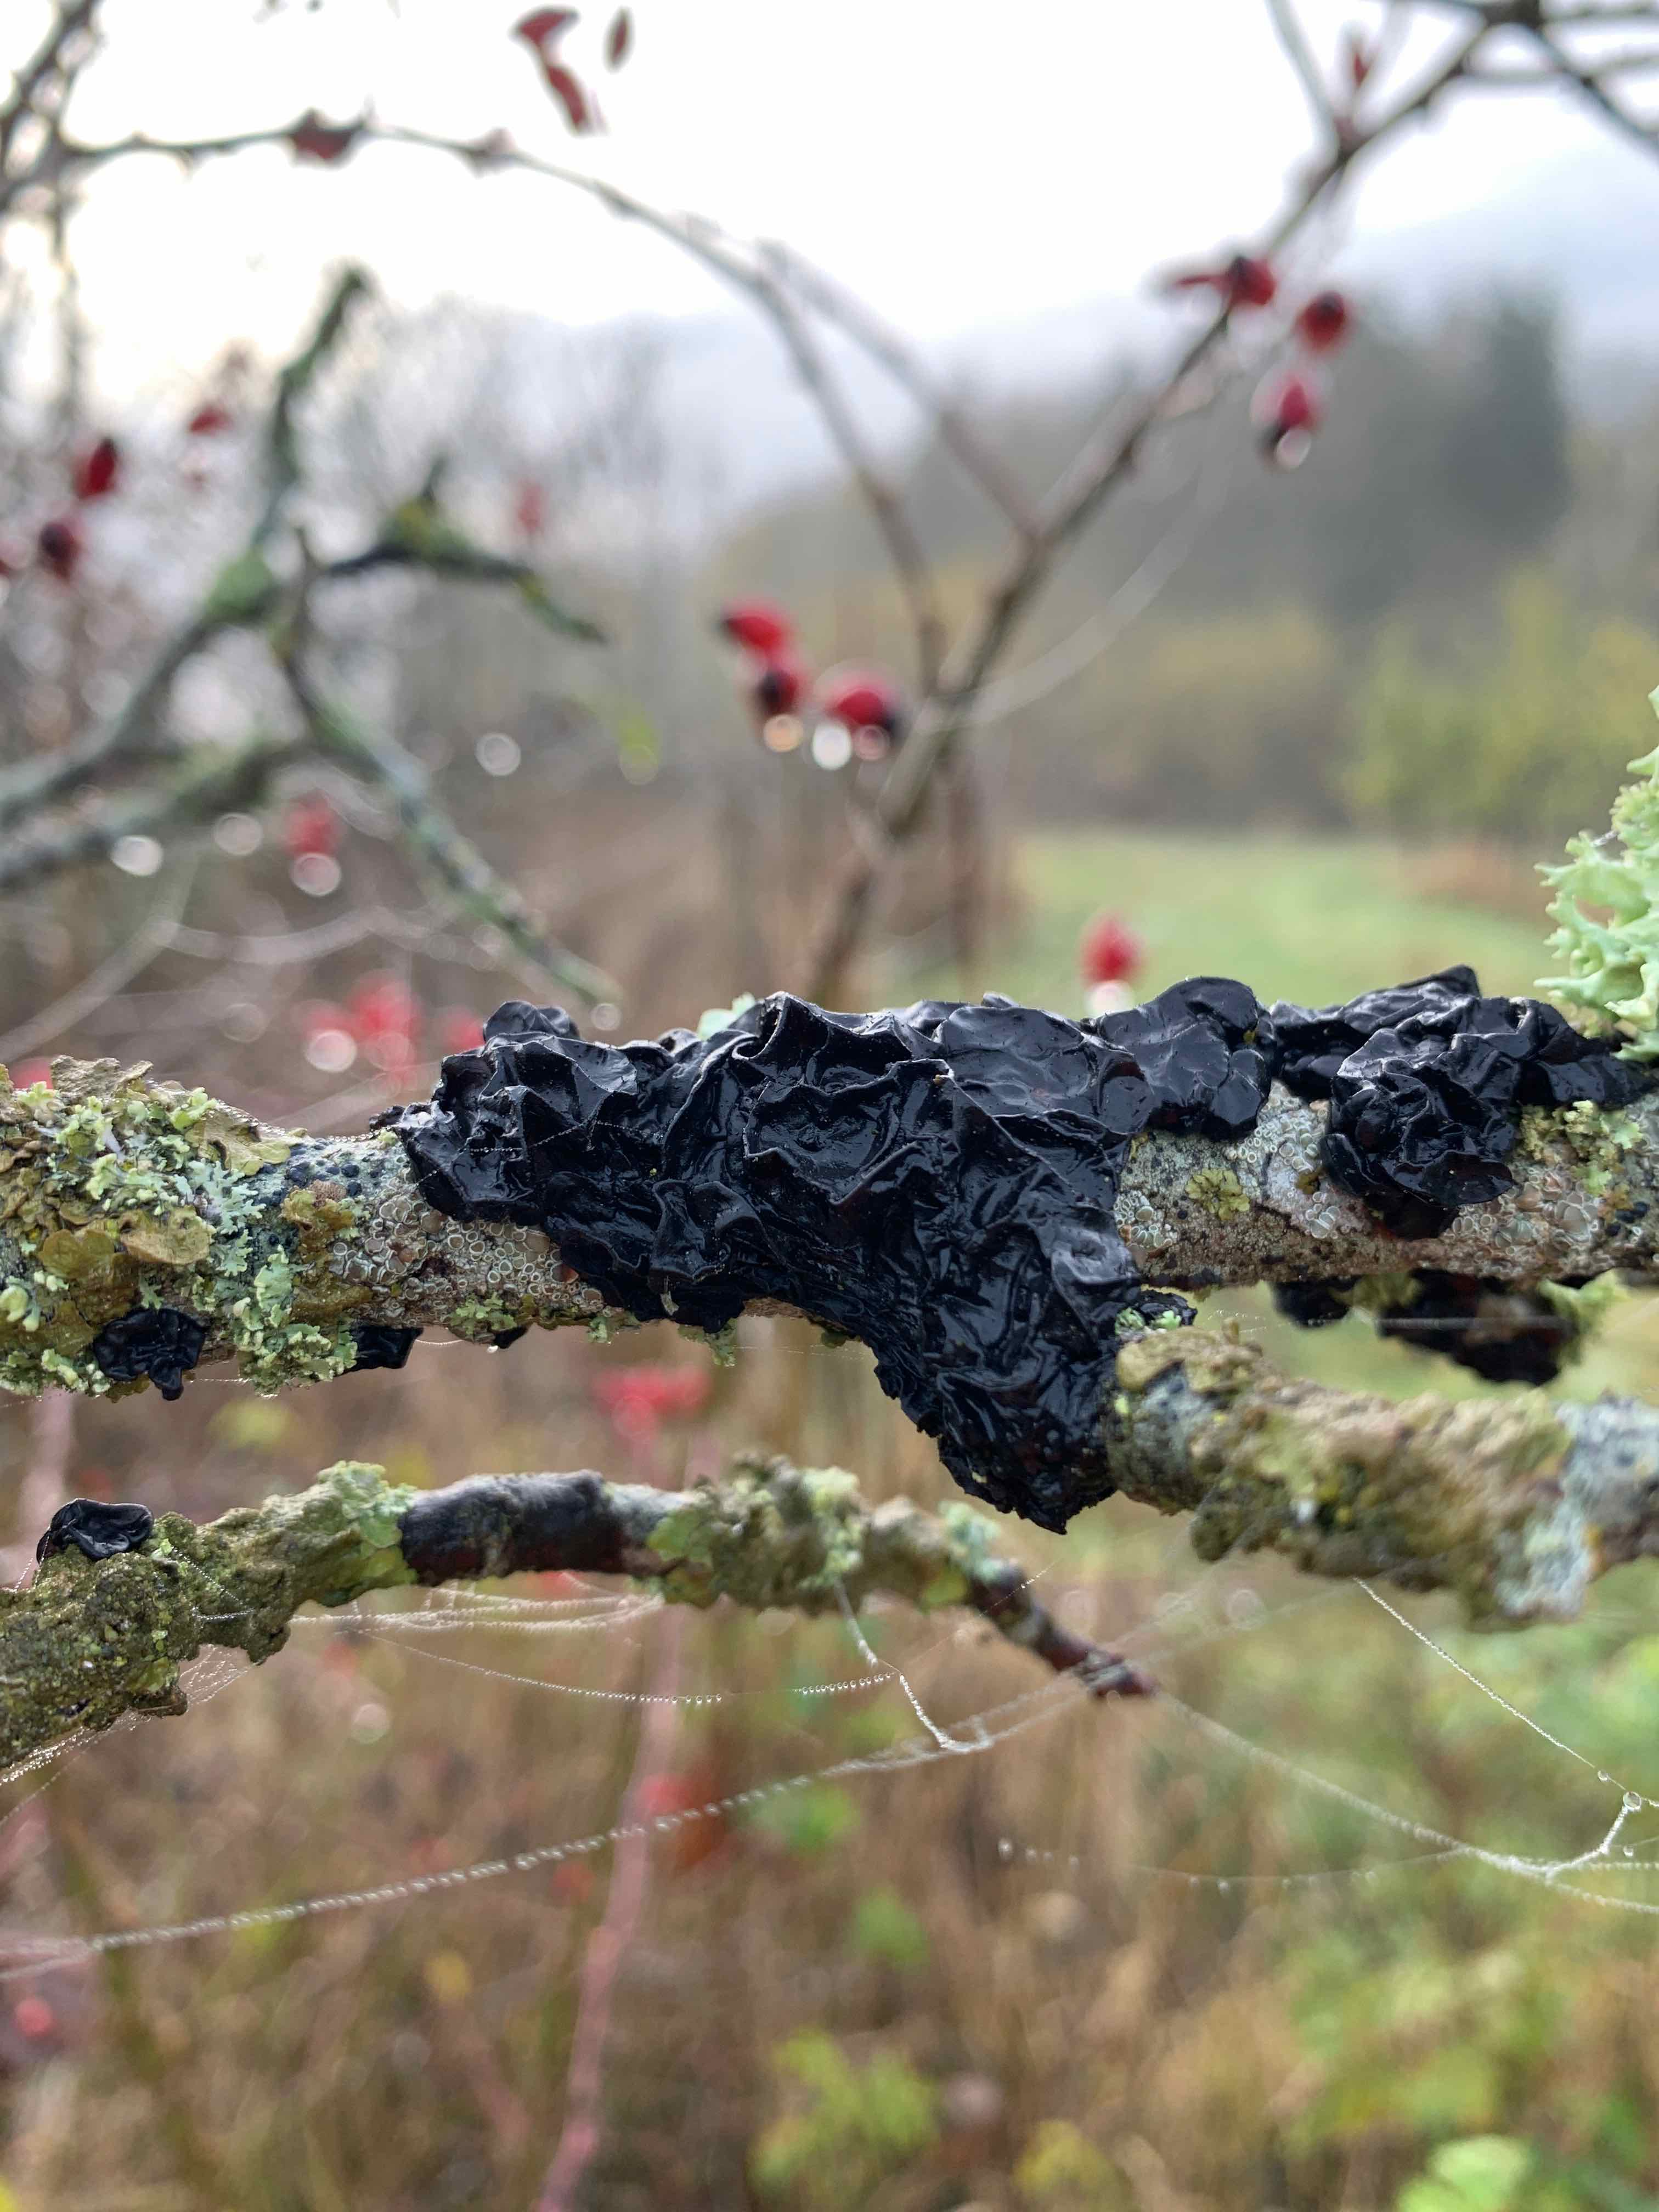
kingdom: Fungi
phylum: Basidiomycota
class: Agaricomycetes
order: Auriculariales
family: Auriculariaceae
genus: Exidia
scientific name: Exidia nigricans
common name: almindelig bævretop
